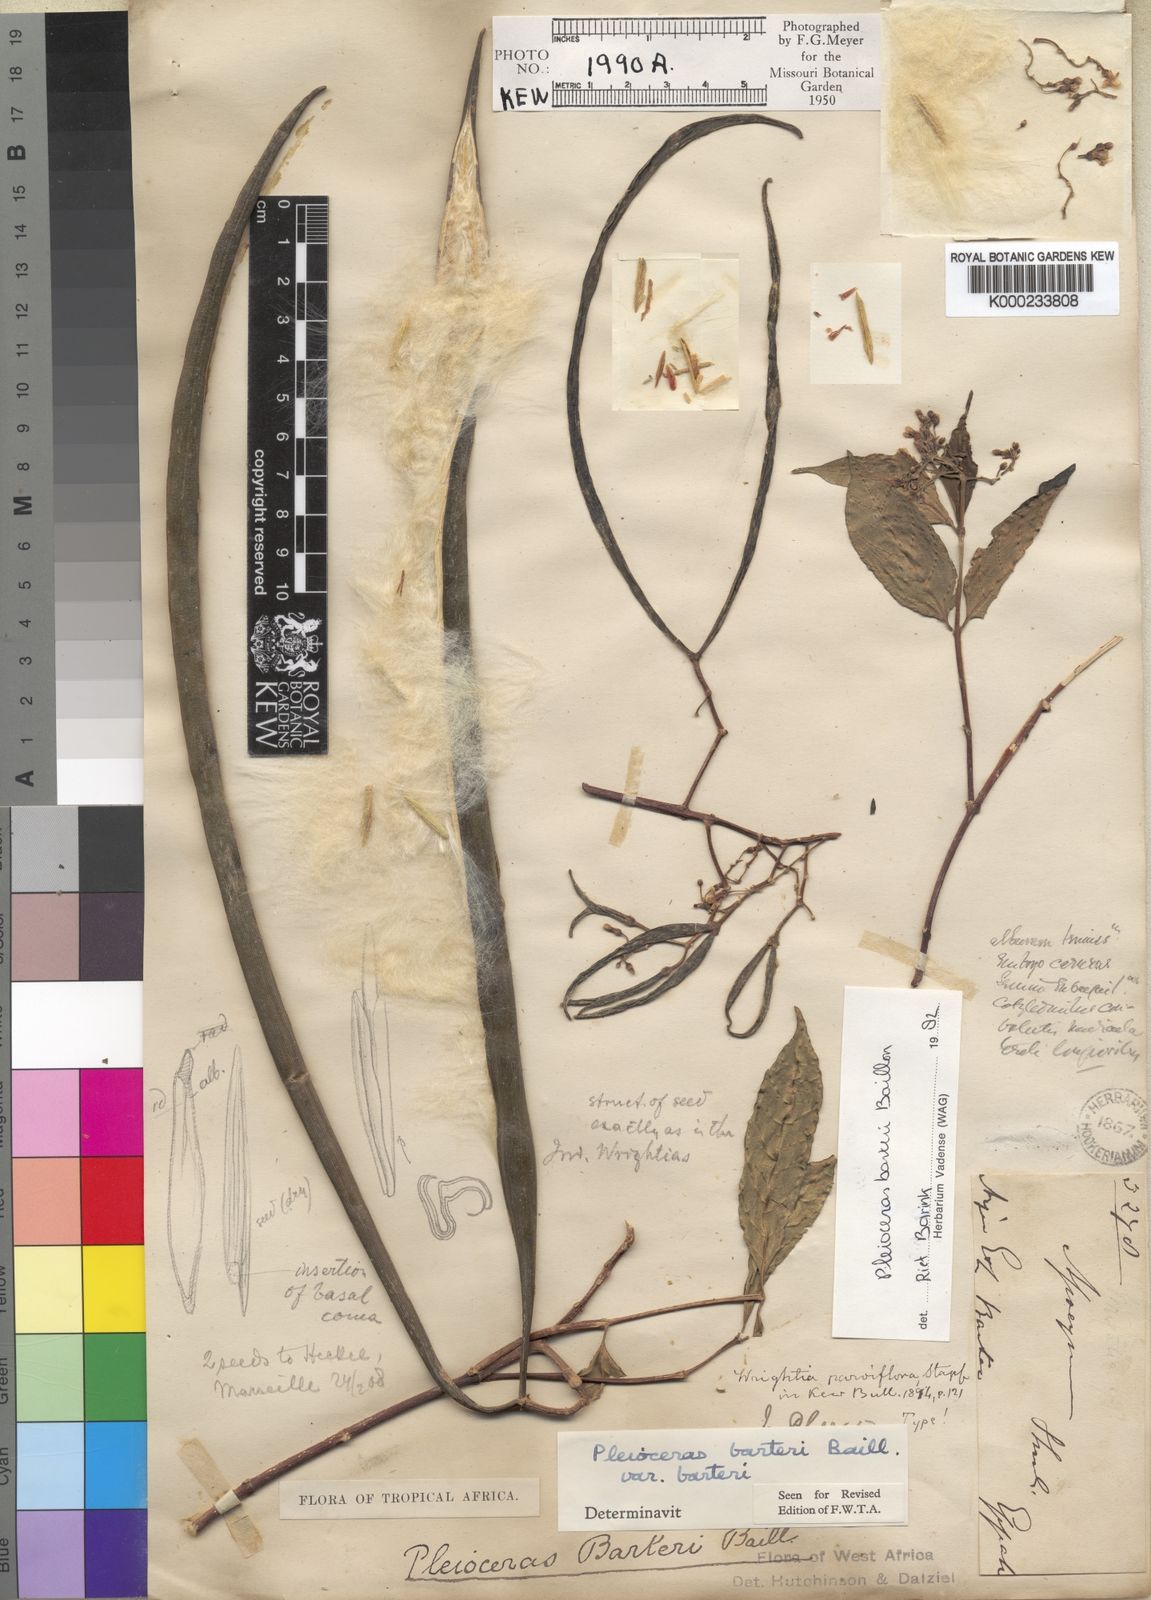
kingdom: Plantae
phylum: Tracheophyta
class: Magnoliopsida
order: Gentianales
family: Apocynaceae
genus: Pleioceras
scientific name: Pleioceras barteri
